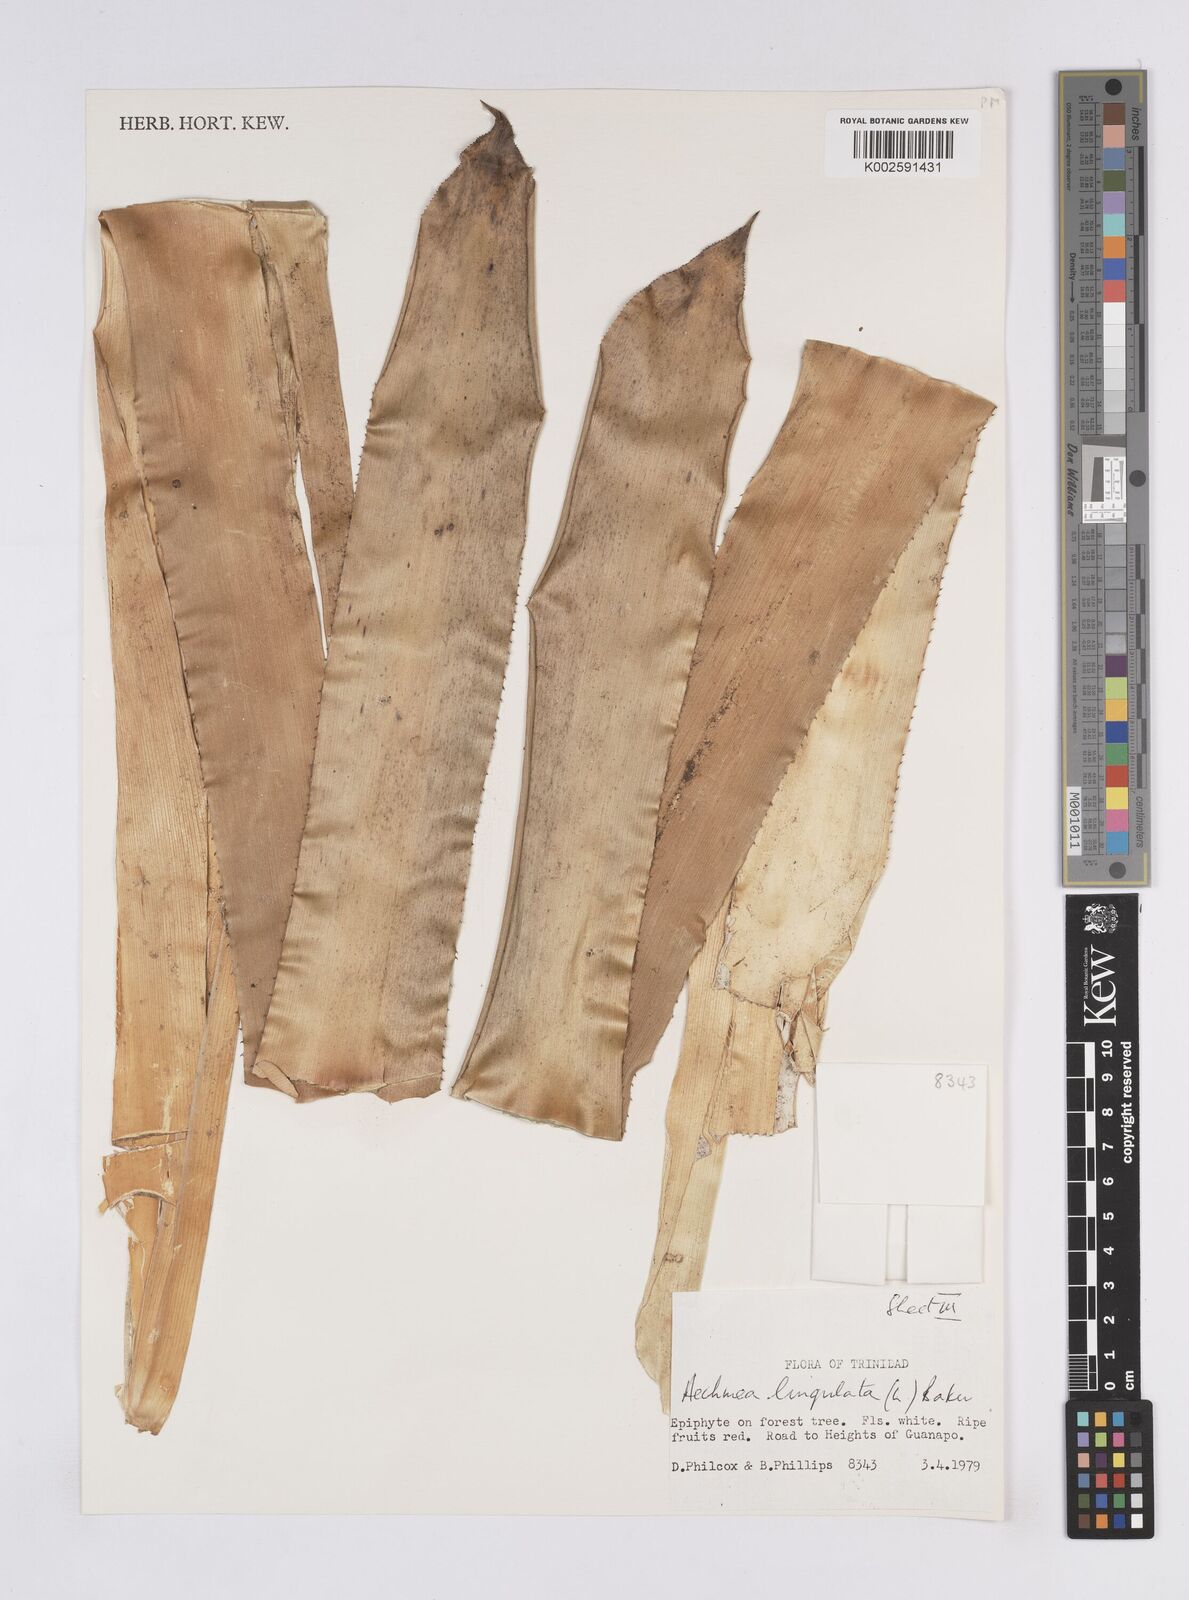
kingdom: Plantae
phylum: Tracheophyta
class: Liliopsida
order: Poales
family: Bromeliaceae
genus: Wittmackia
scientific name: Wittmackia lingulata
